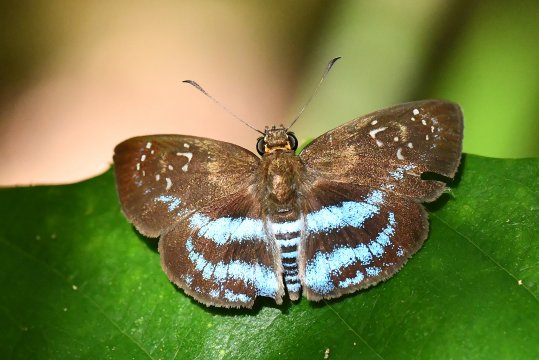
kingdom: Animalia
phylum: Arthropoda
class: Insecta
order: Lepidoptera
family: Hesperiidae
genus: Quadrus
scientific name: Quadrus contubernalis
